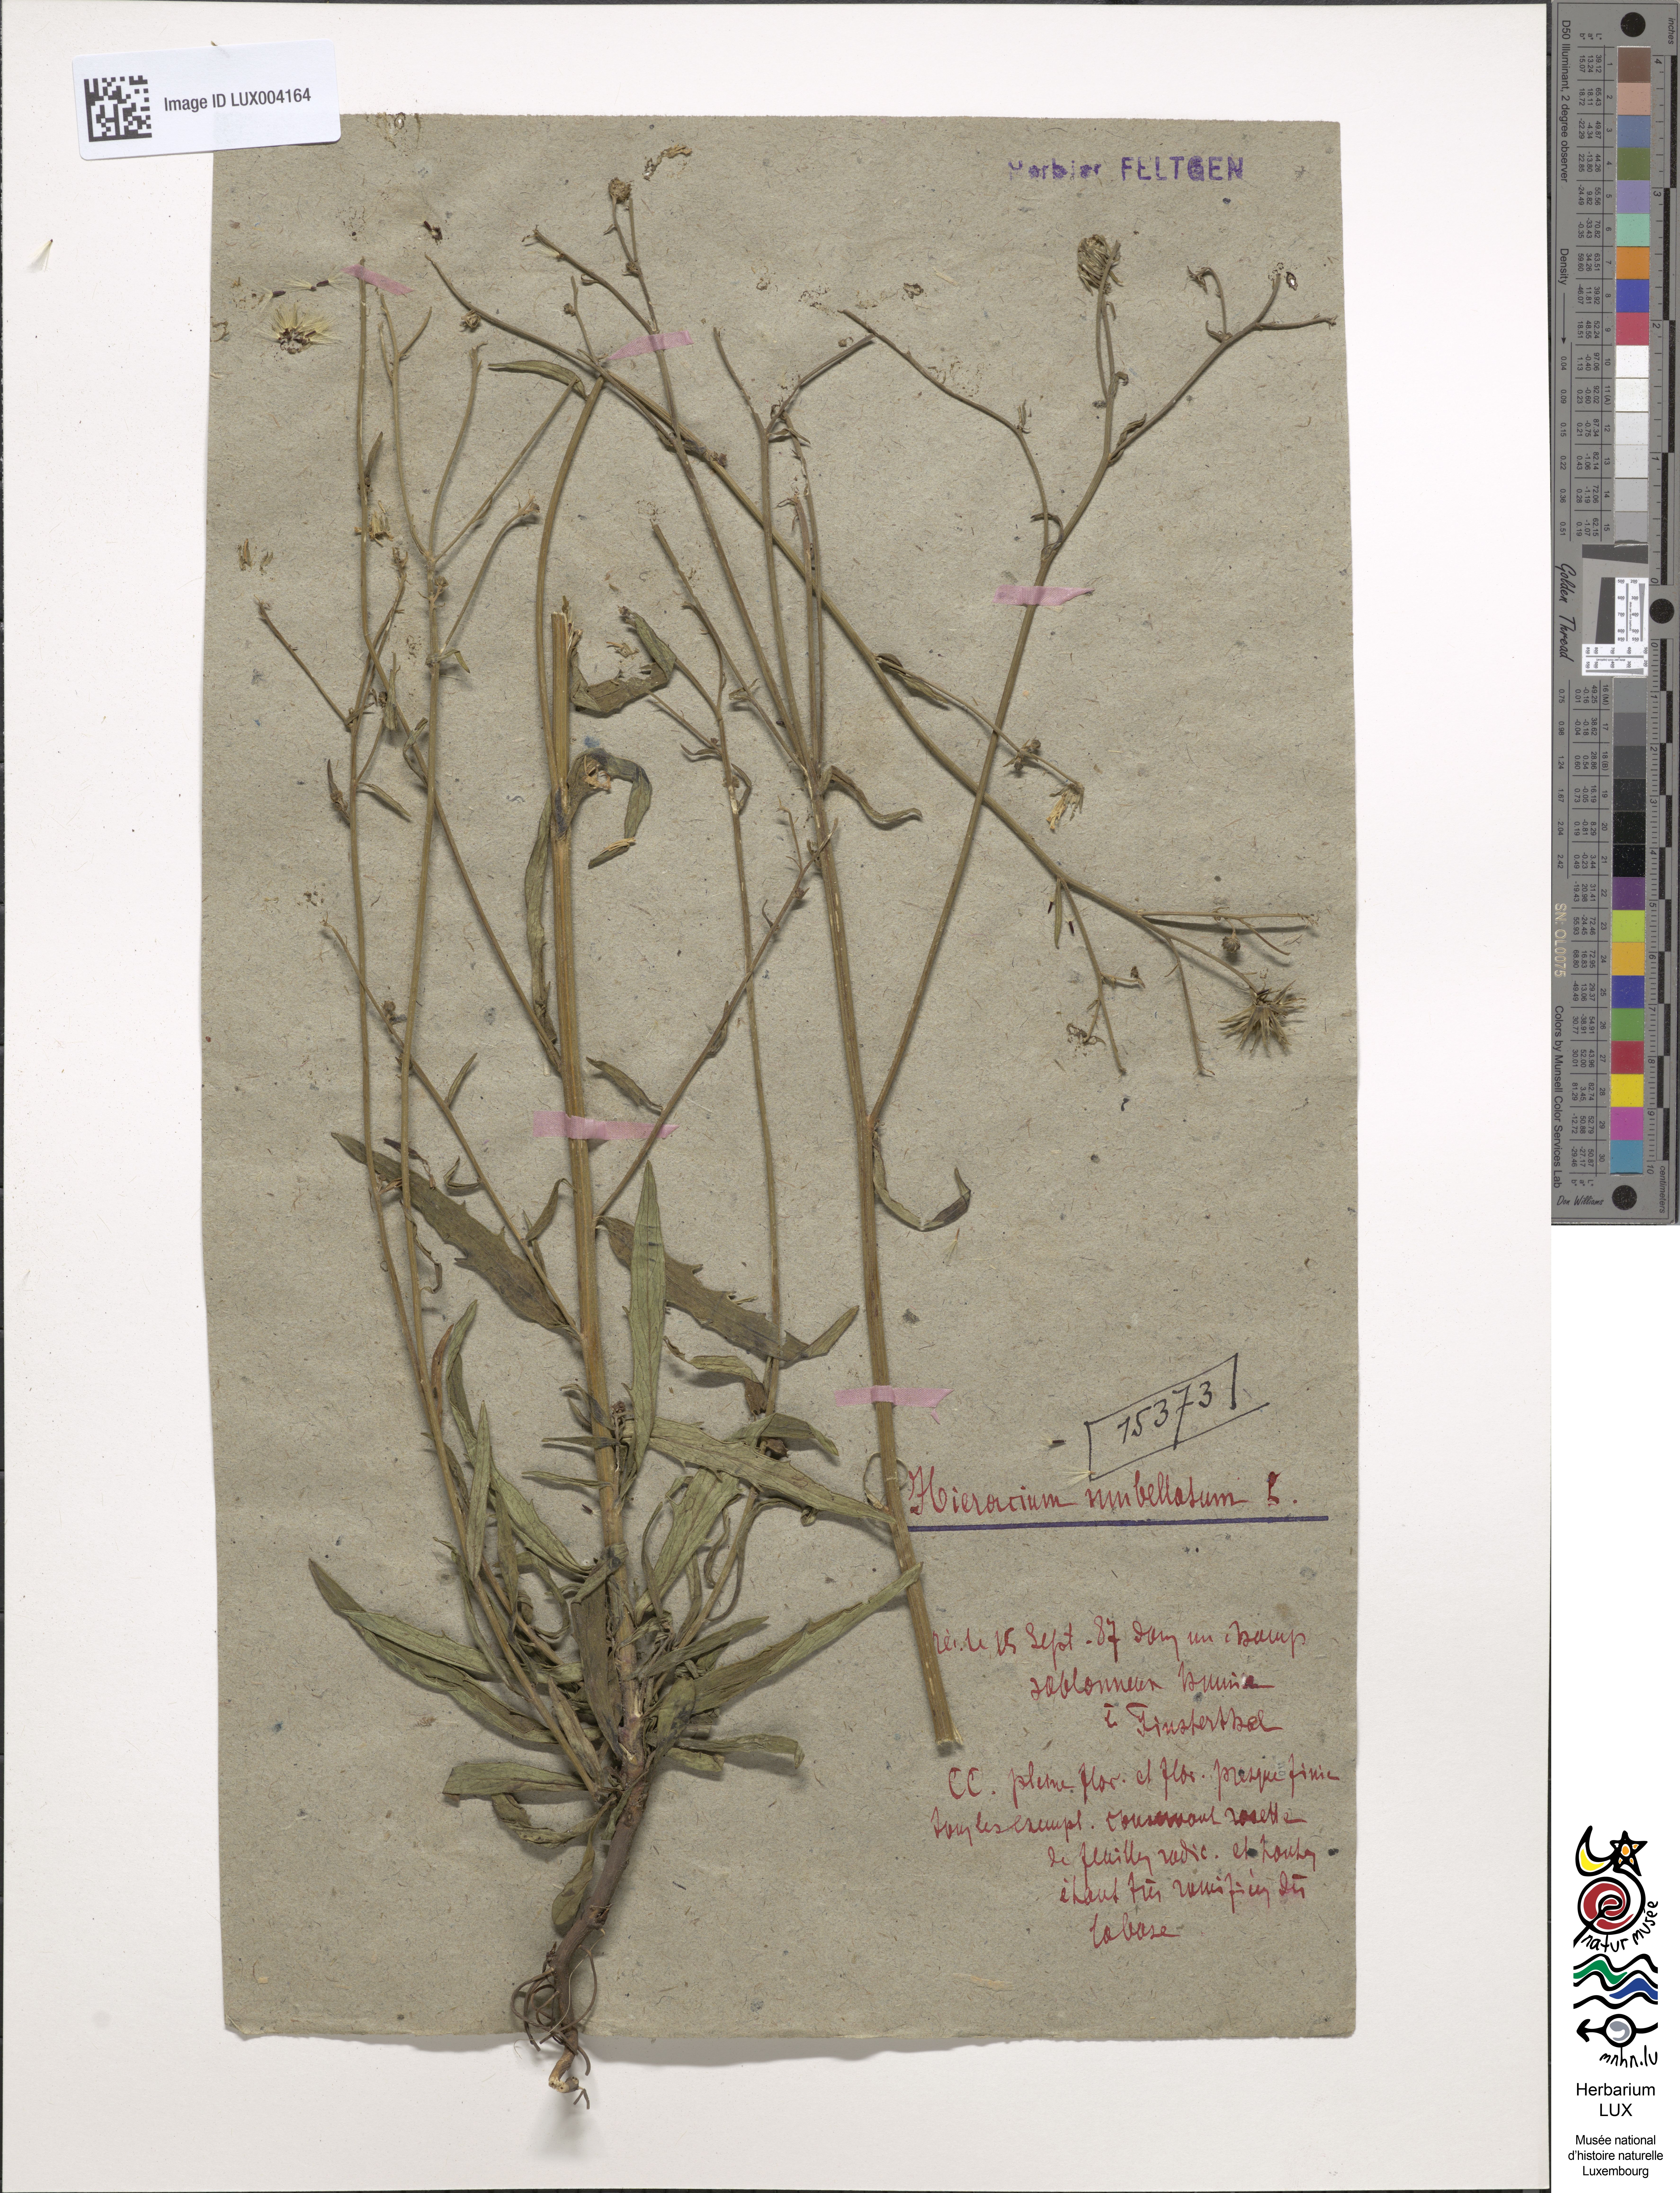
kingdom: Plantae
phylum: Tracheophyta
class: Magnoliopsida
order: Asterales
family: Asteraceae
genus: Hieracium
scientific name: Hieracium umbellatum
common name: Northern hawkweed
